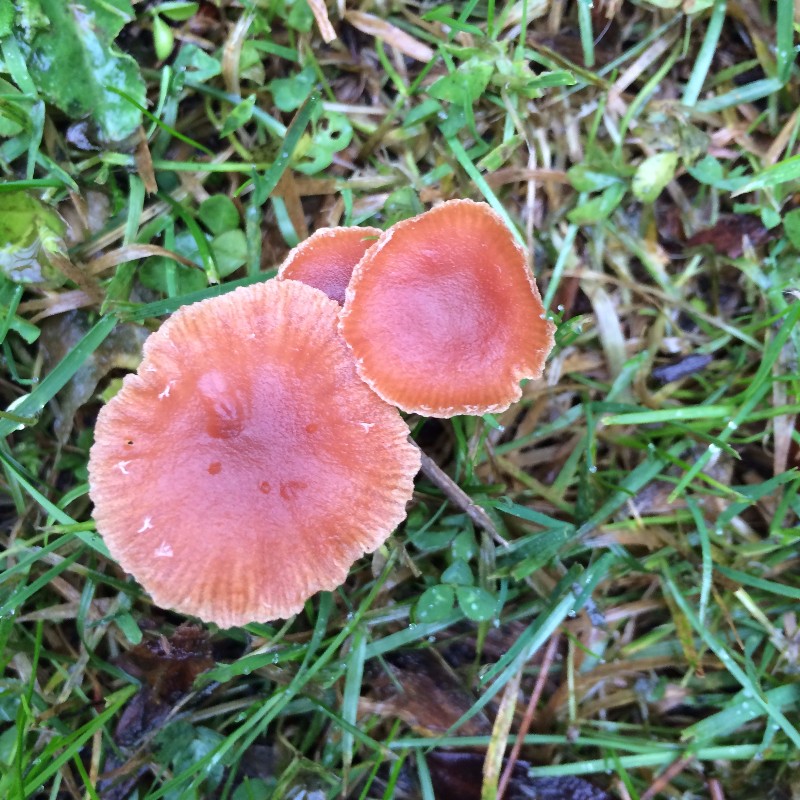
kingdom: Fungi
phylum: Basidiomycota
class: Agaricomycetes
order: Agaricales
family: Tubariaceae
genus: Tubaria
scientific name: Tubaria furfuracea
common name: kliddet fnughat
